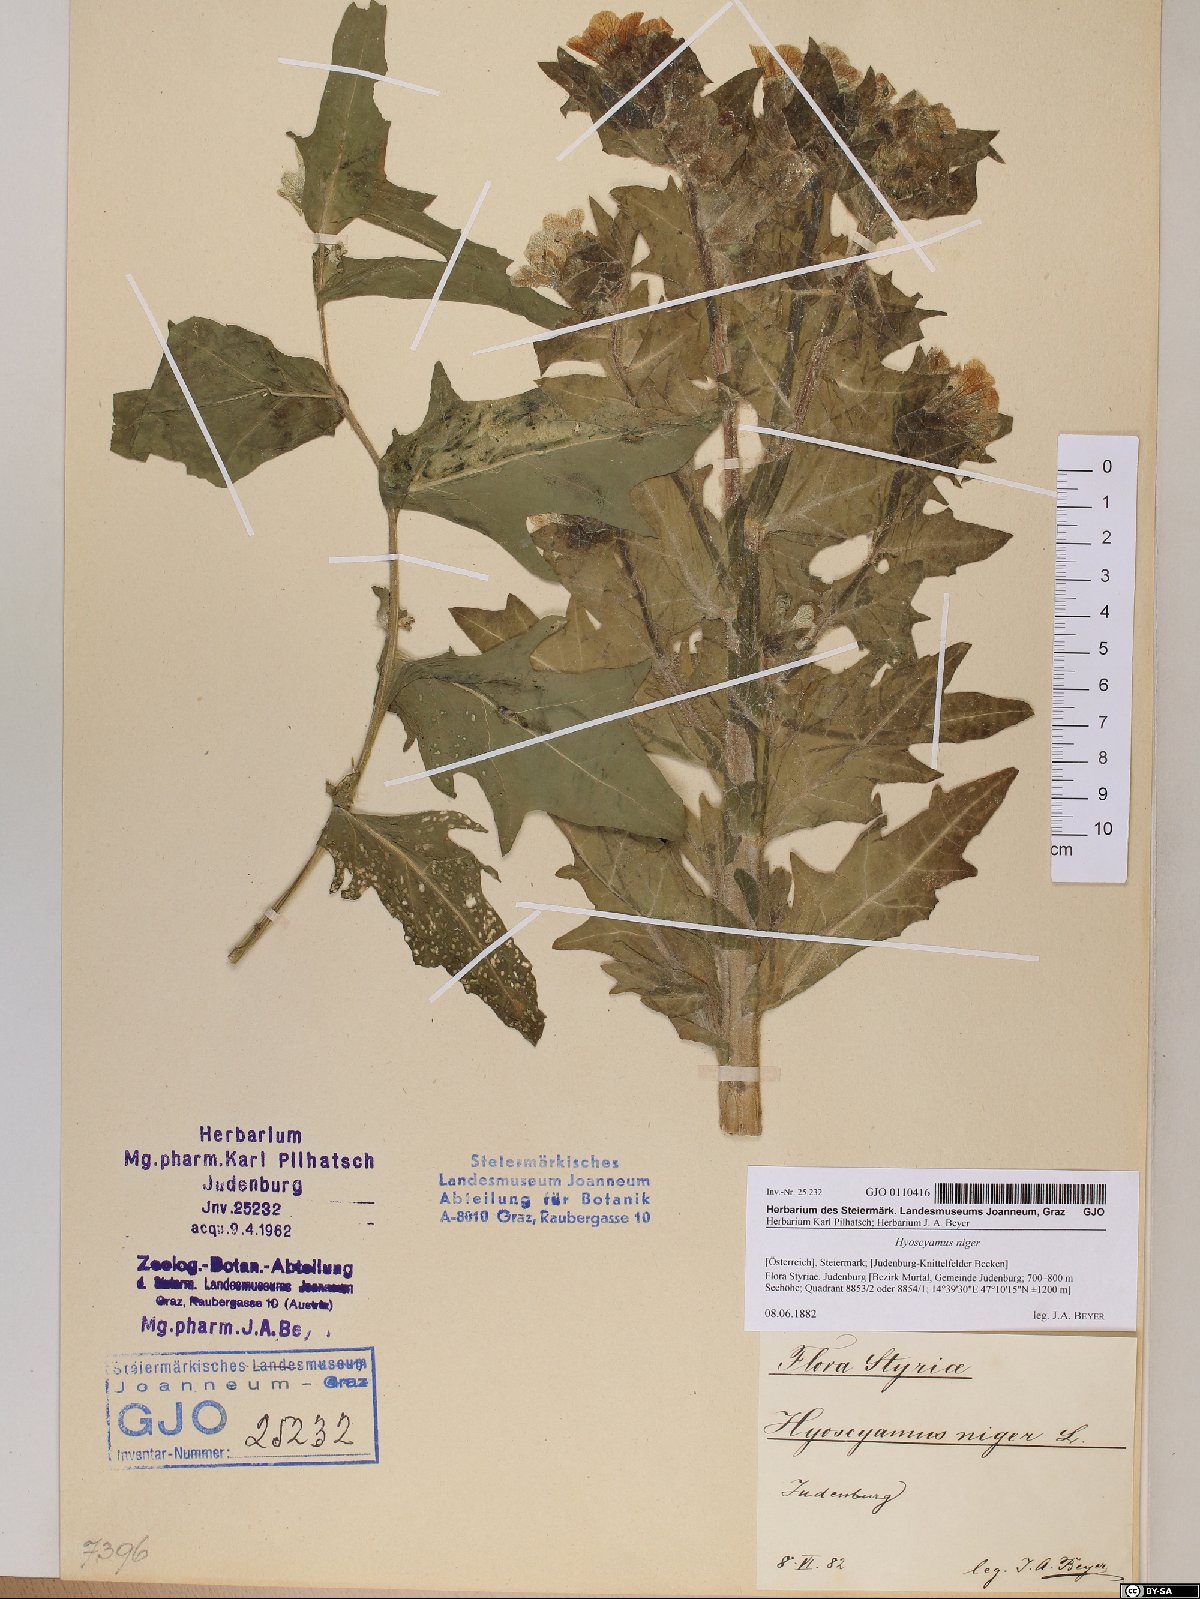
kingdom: Plantae
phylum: Tracheophyta
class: Magnoliopsida
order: Solanales
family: Solanaceae
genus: Hyoscyamus
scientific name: Hyoscyamus niger
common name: Henbane
